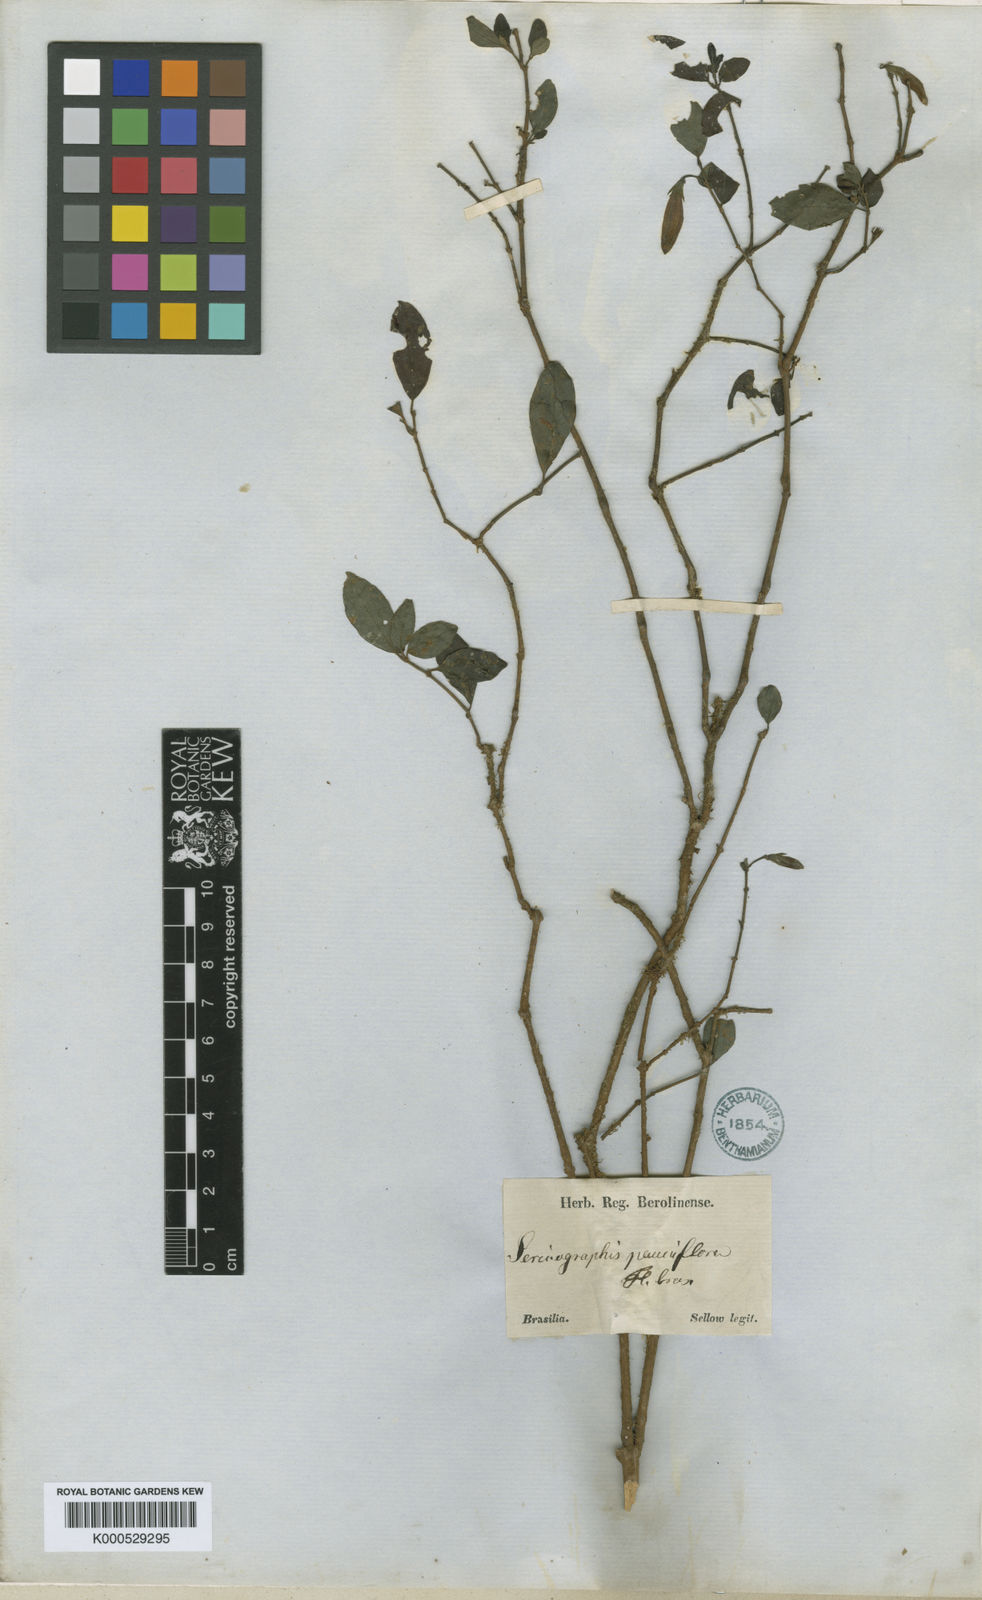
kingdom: Plantae
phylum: Tracheophyta
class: Magnoliopsida
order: Lamiales
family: Acanthaceae
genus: Justicia
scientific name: Justicia floribunda
